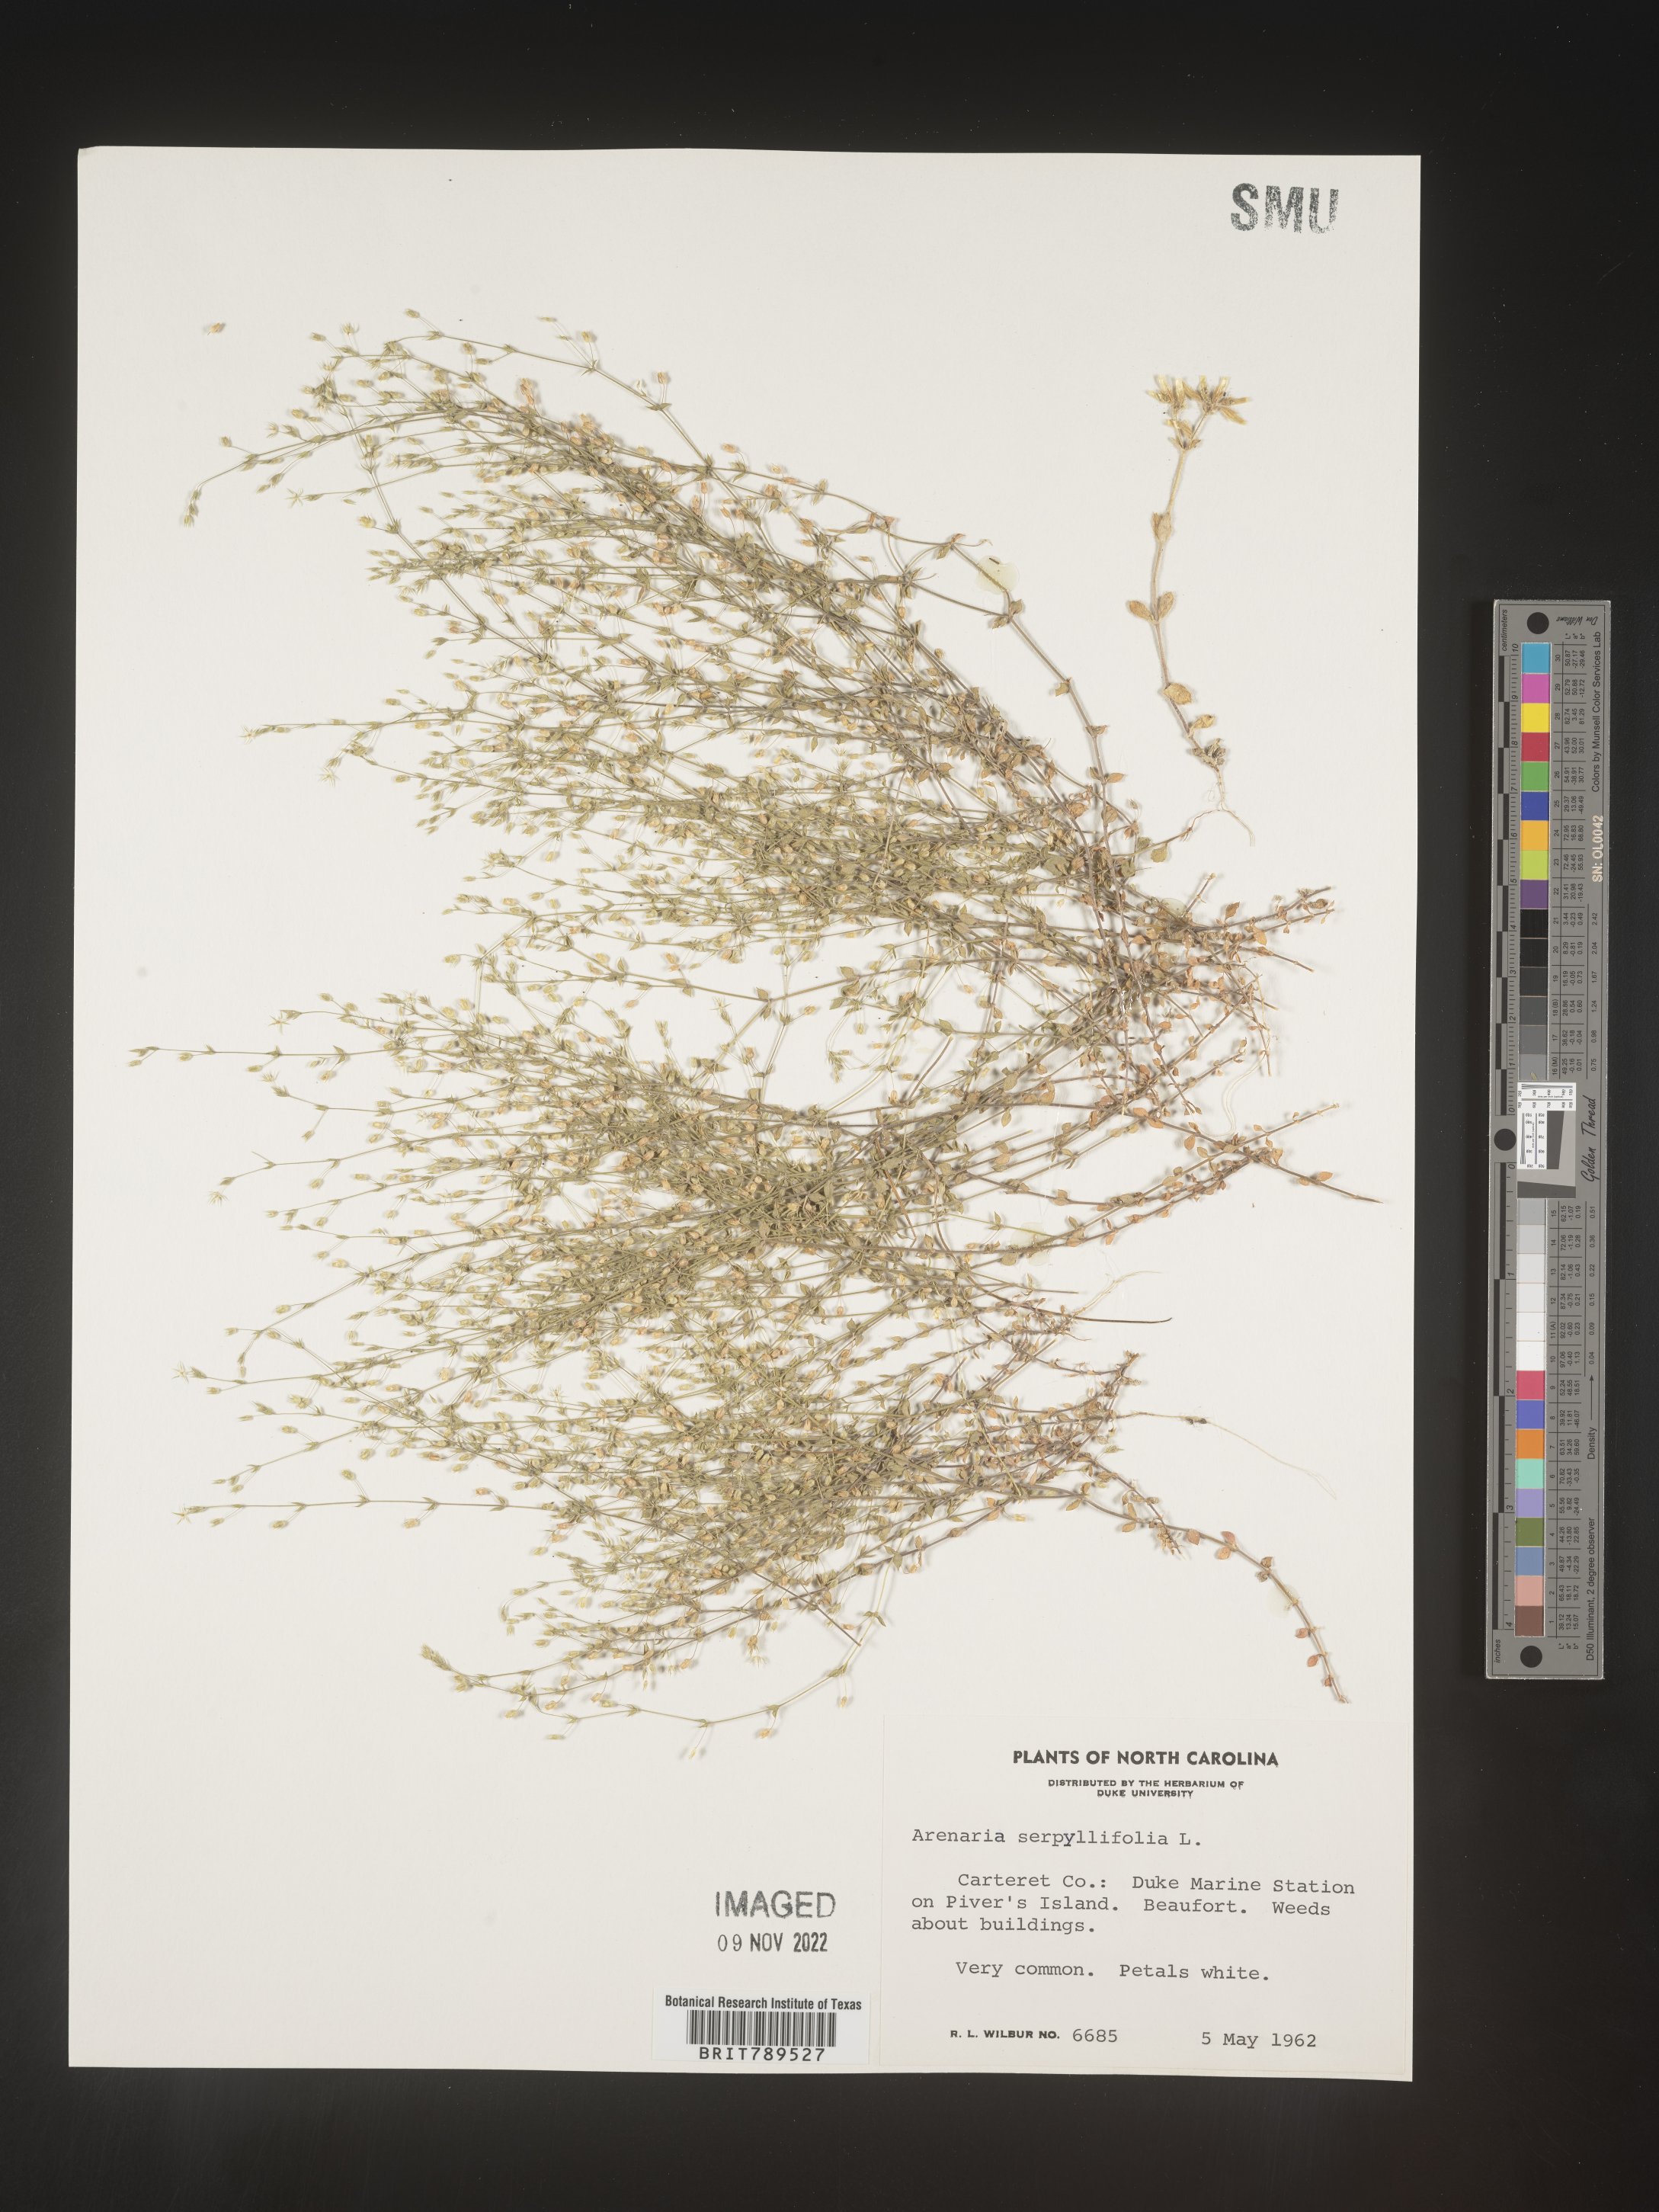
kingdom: Plantae
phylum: Tracheophyta
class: Magnoliopsida
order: Caryophyllales
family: Caryophyllaceae
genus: Arenaria
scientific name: Arenaria serpyllifolia
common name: Thyme-leaved sandwort
